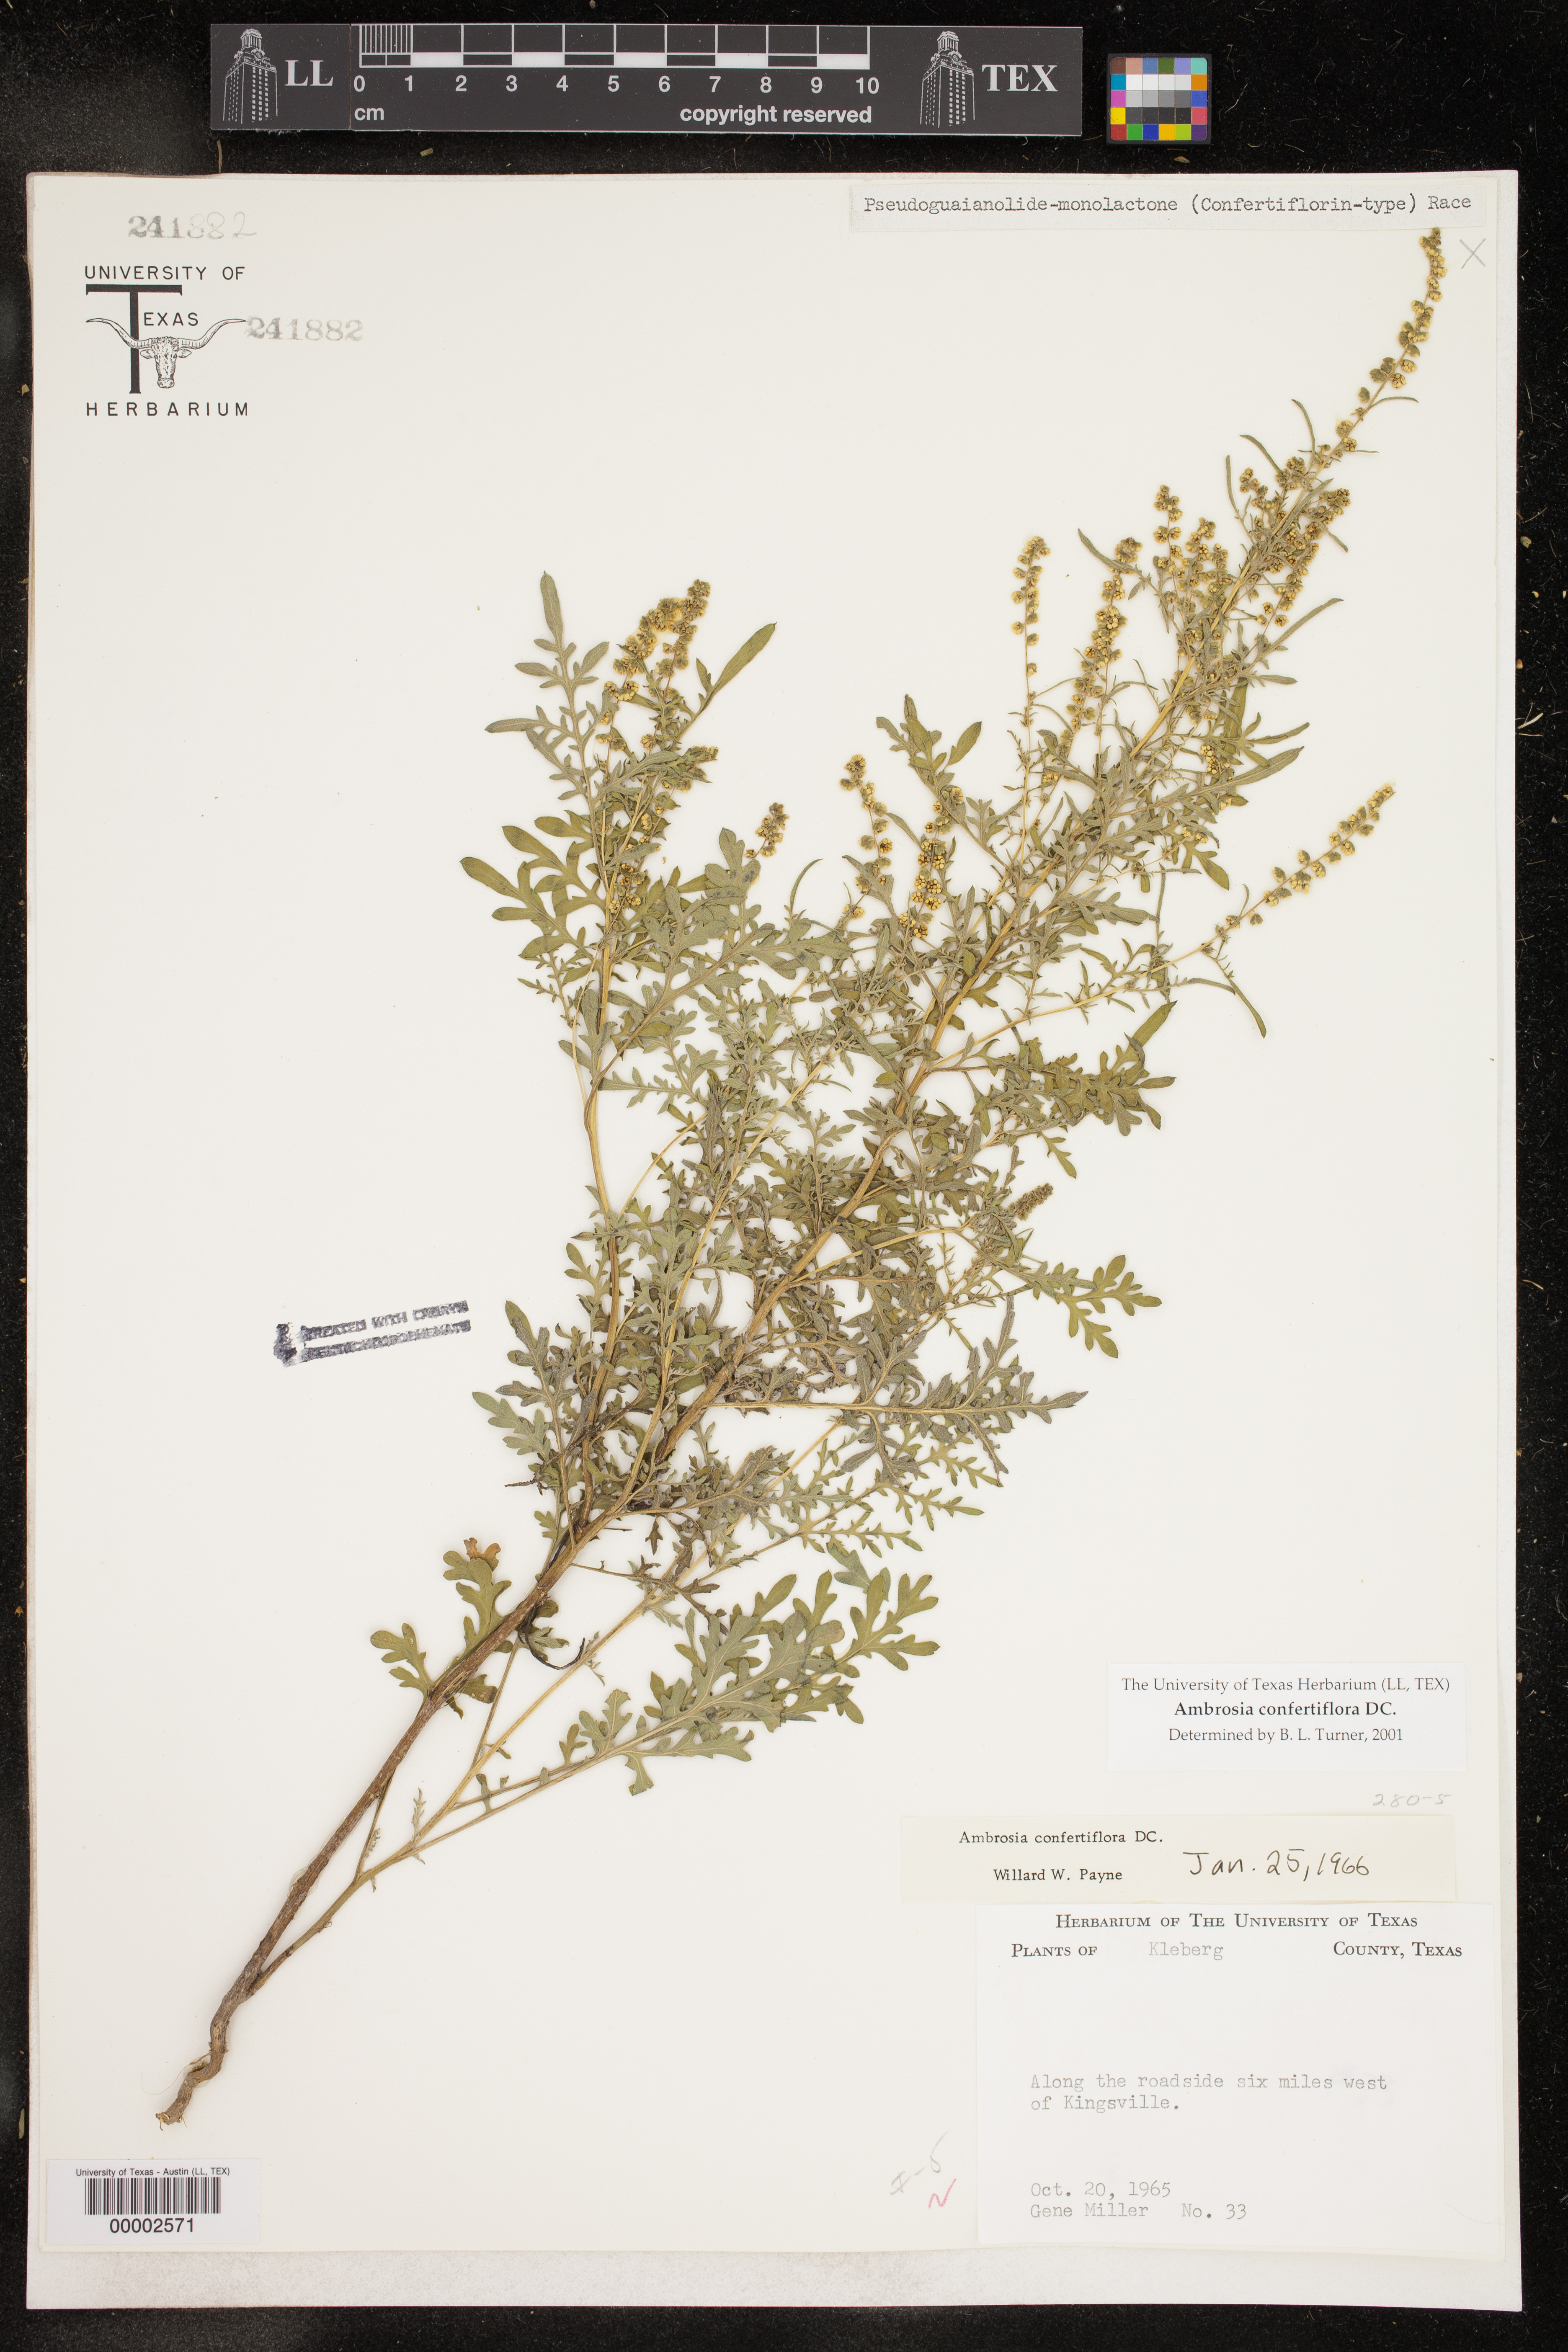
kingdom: Plantae
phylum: Tracheophyta
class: Magnoliopsida
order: Asterales
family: Asteraceae
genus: Ambrosia
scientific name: Ambrosia confertiflora
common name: Bur ragweed
